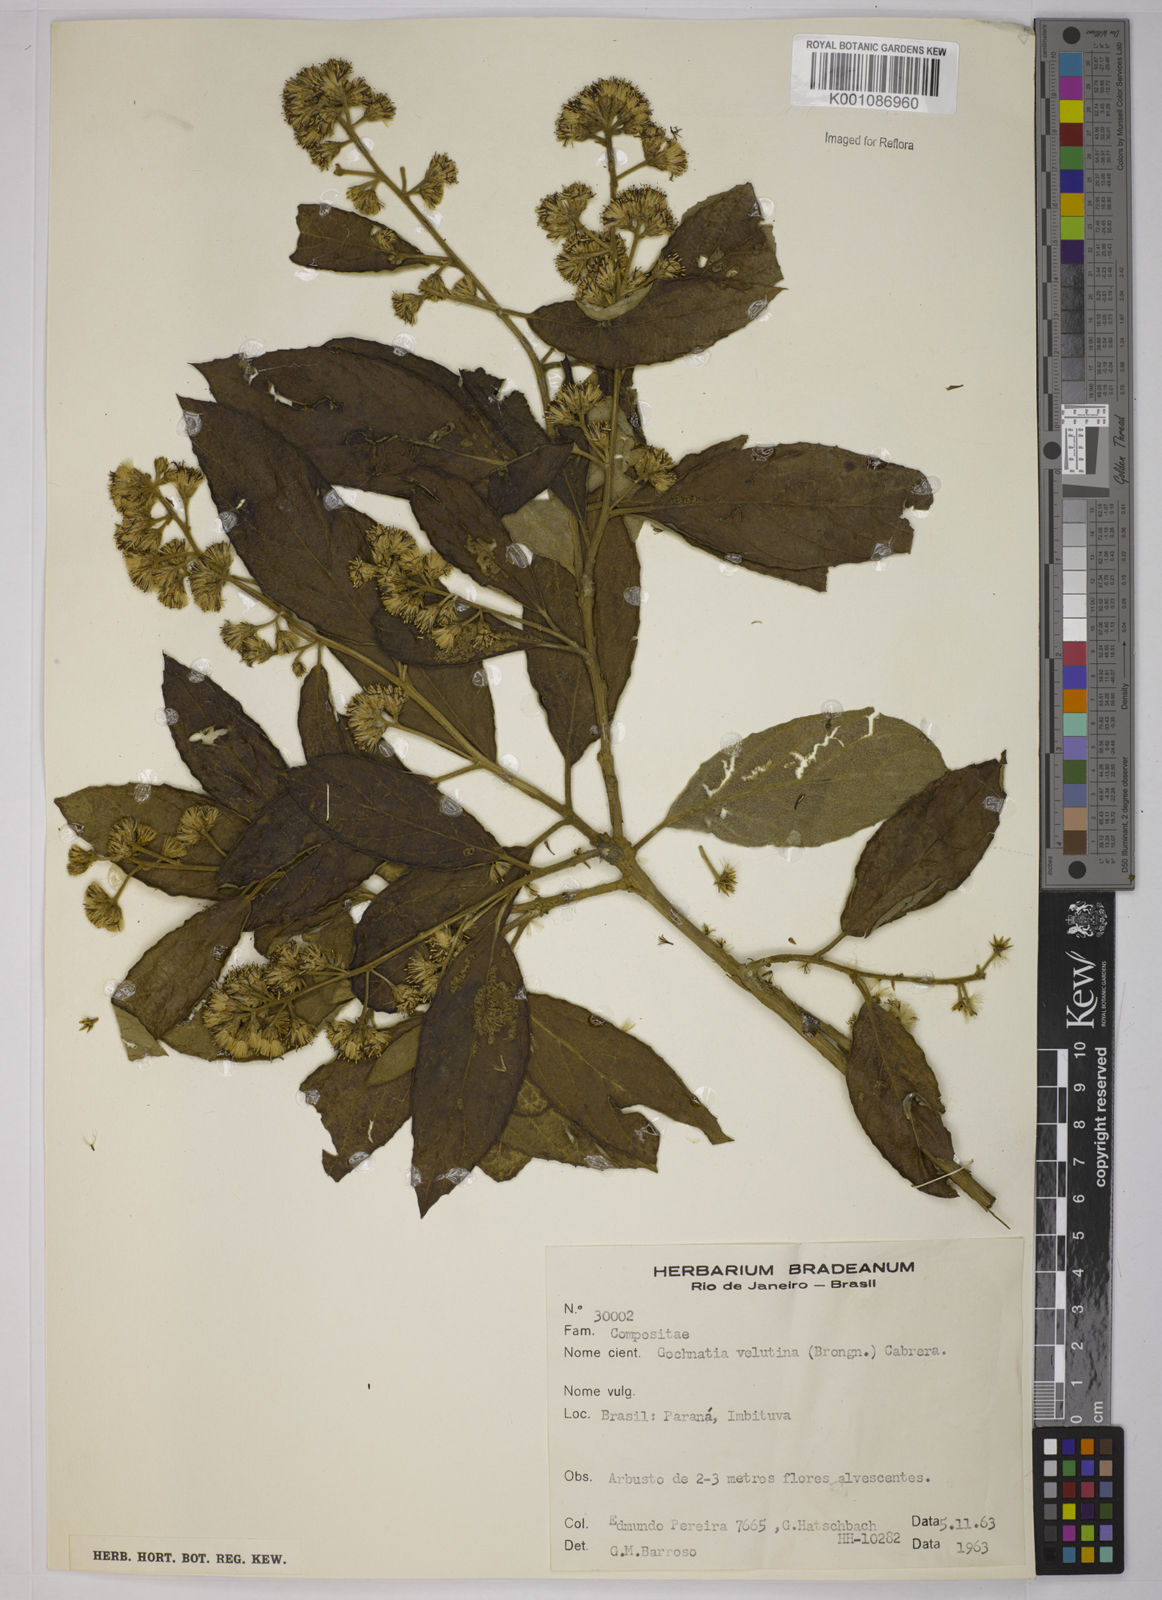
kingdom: Plantae
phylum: Tracheophyta
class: Magnoliopsida
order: Asterales
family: Asteraceae
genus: Moquiniastrum
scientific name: Moquiniastrum polymorphum
